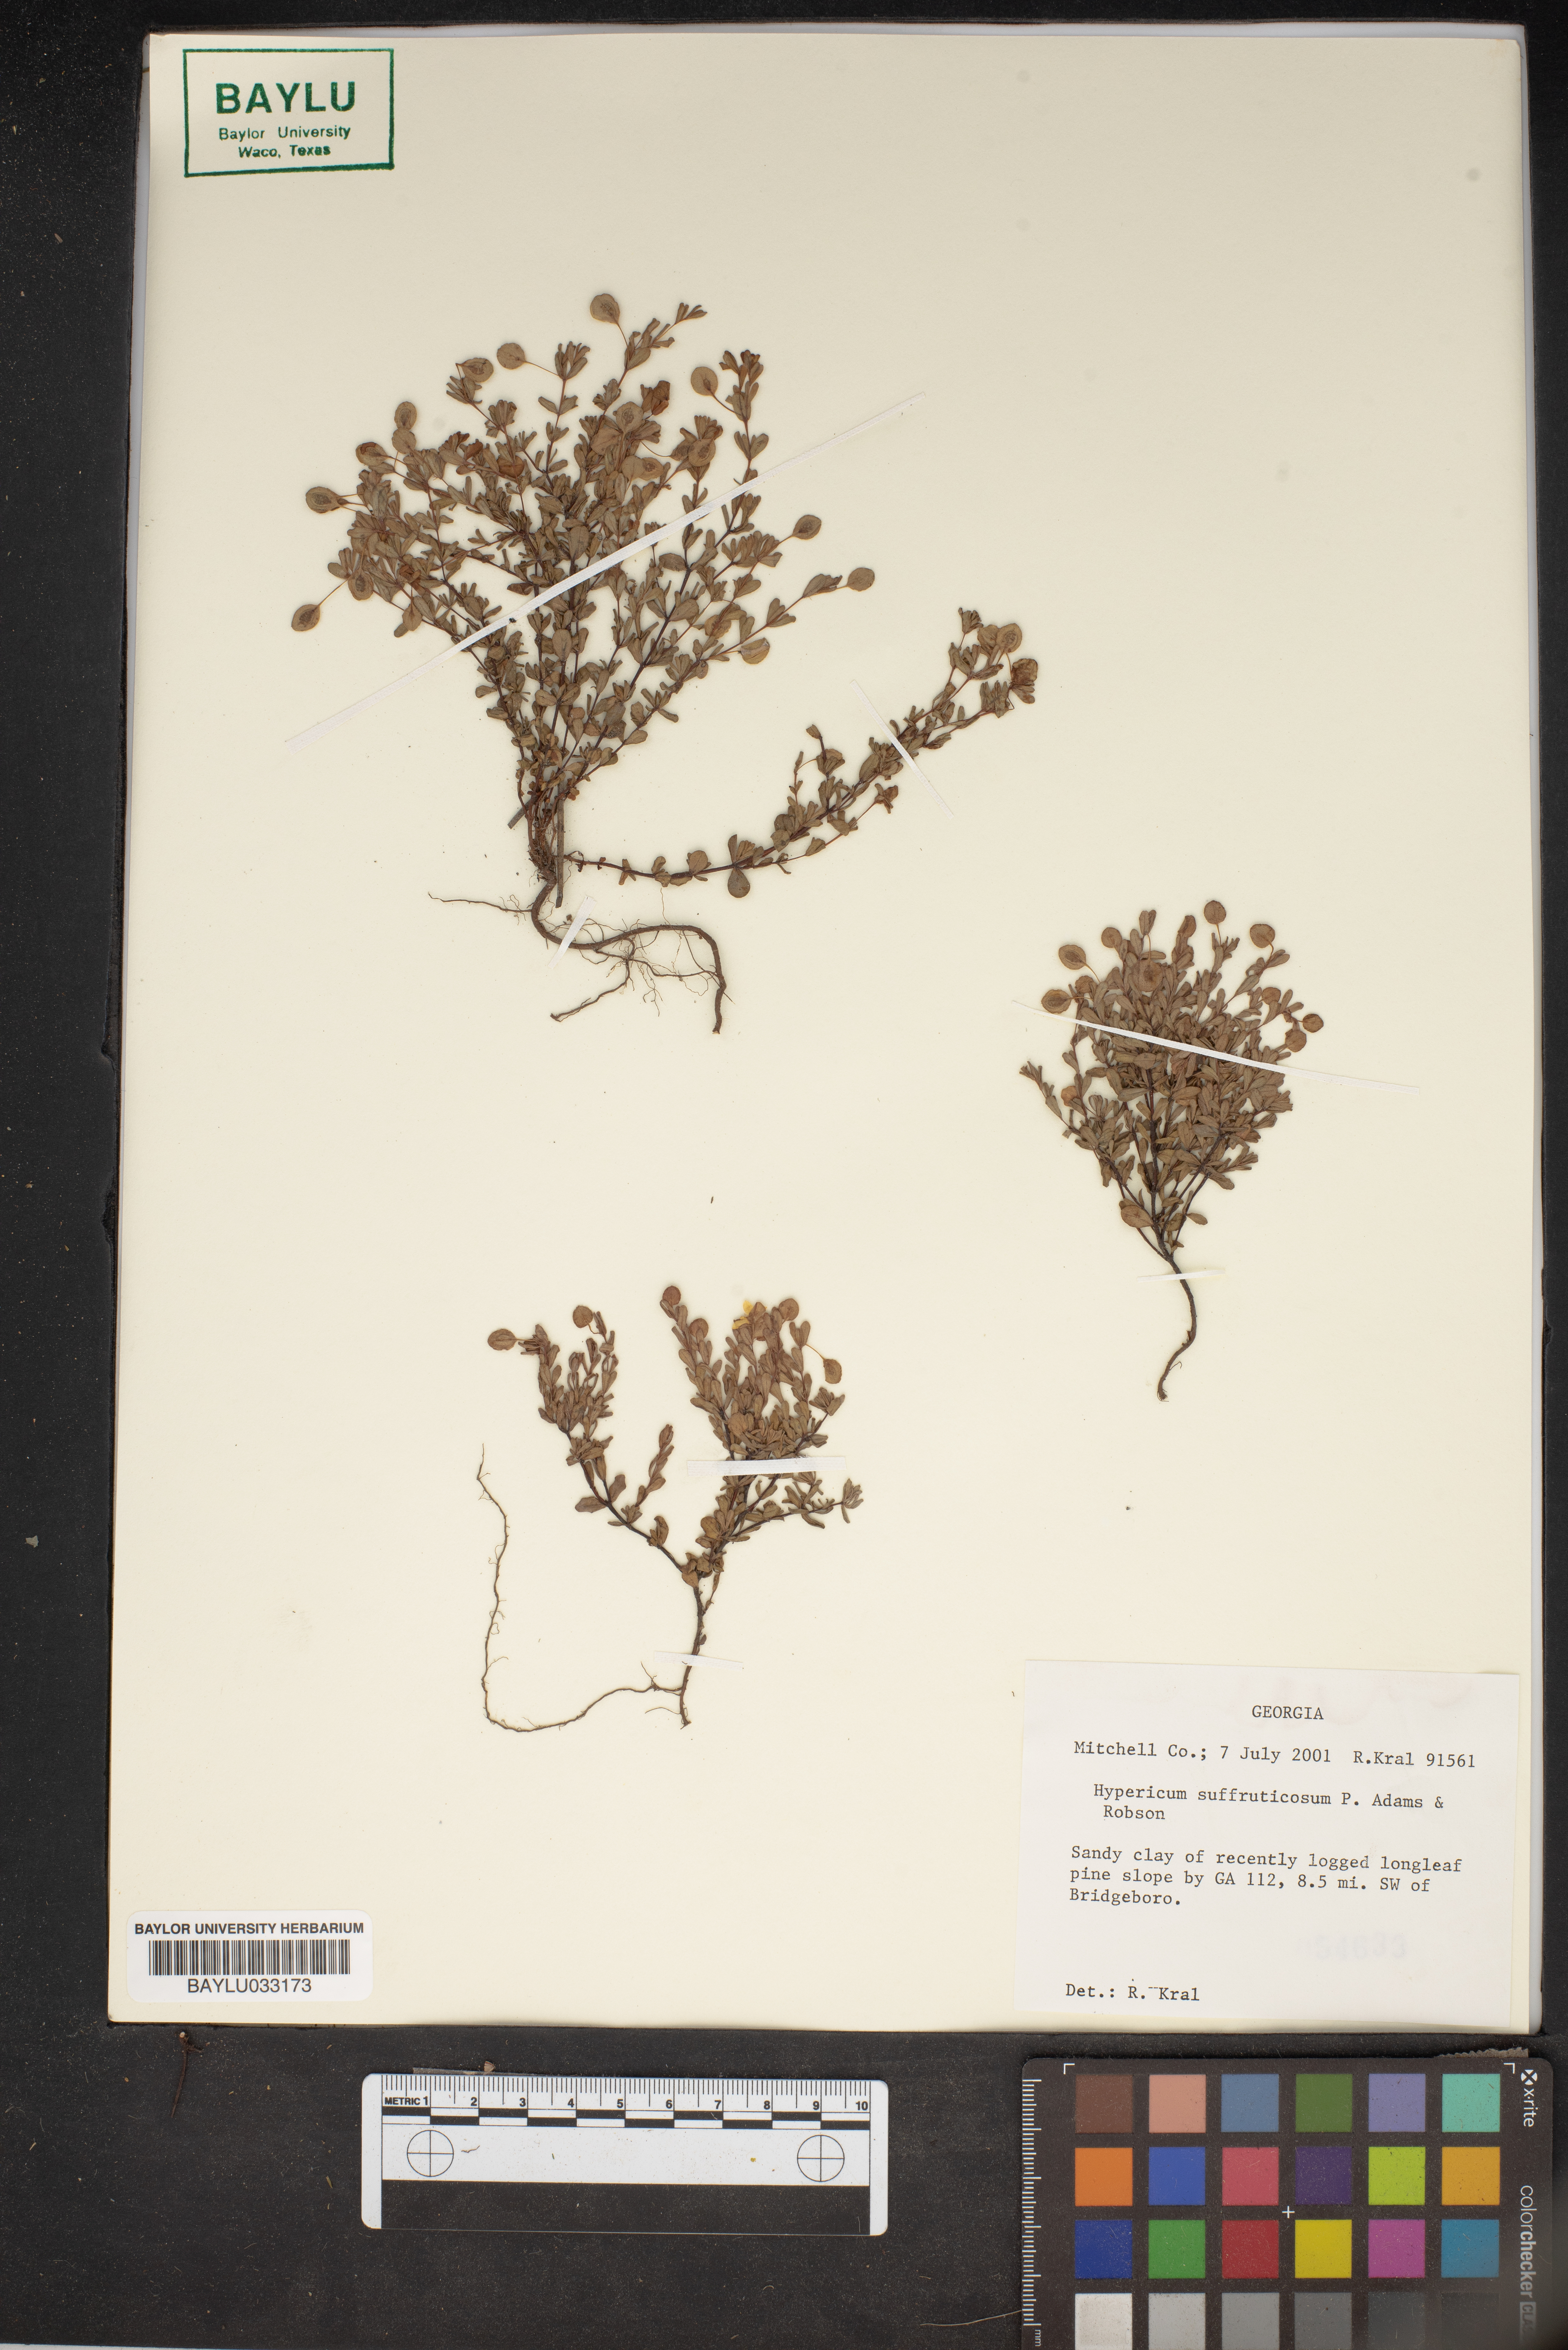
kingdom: Plantae
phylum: Tracheophyta
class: Magnoliopsida
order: Malpighiales
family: Hypericaceae
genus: Hypericum
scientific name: Hypericum suffruticosum
